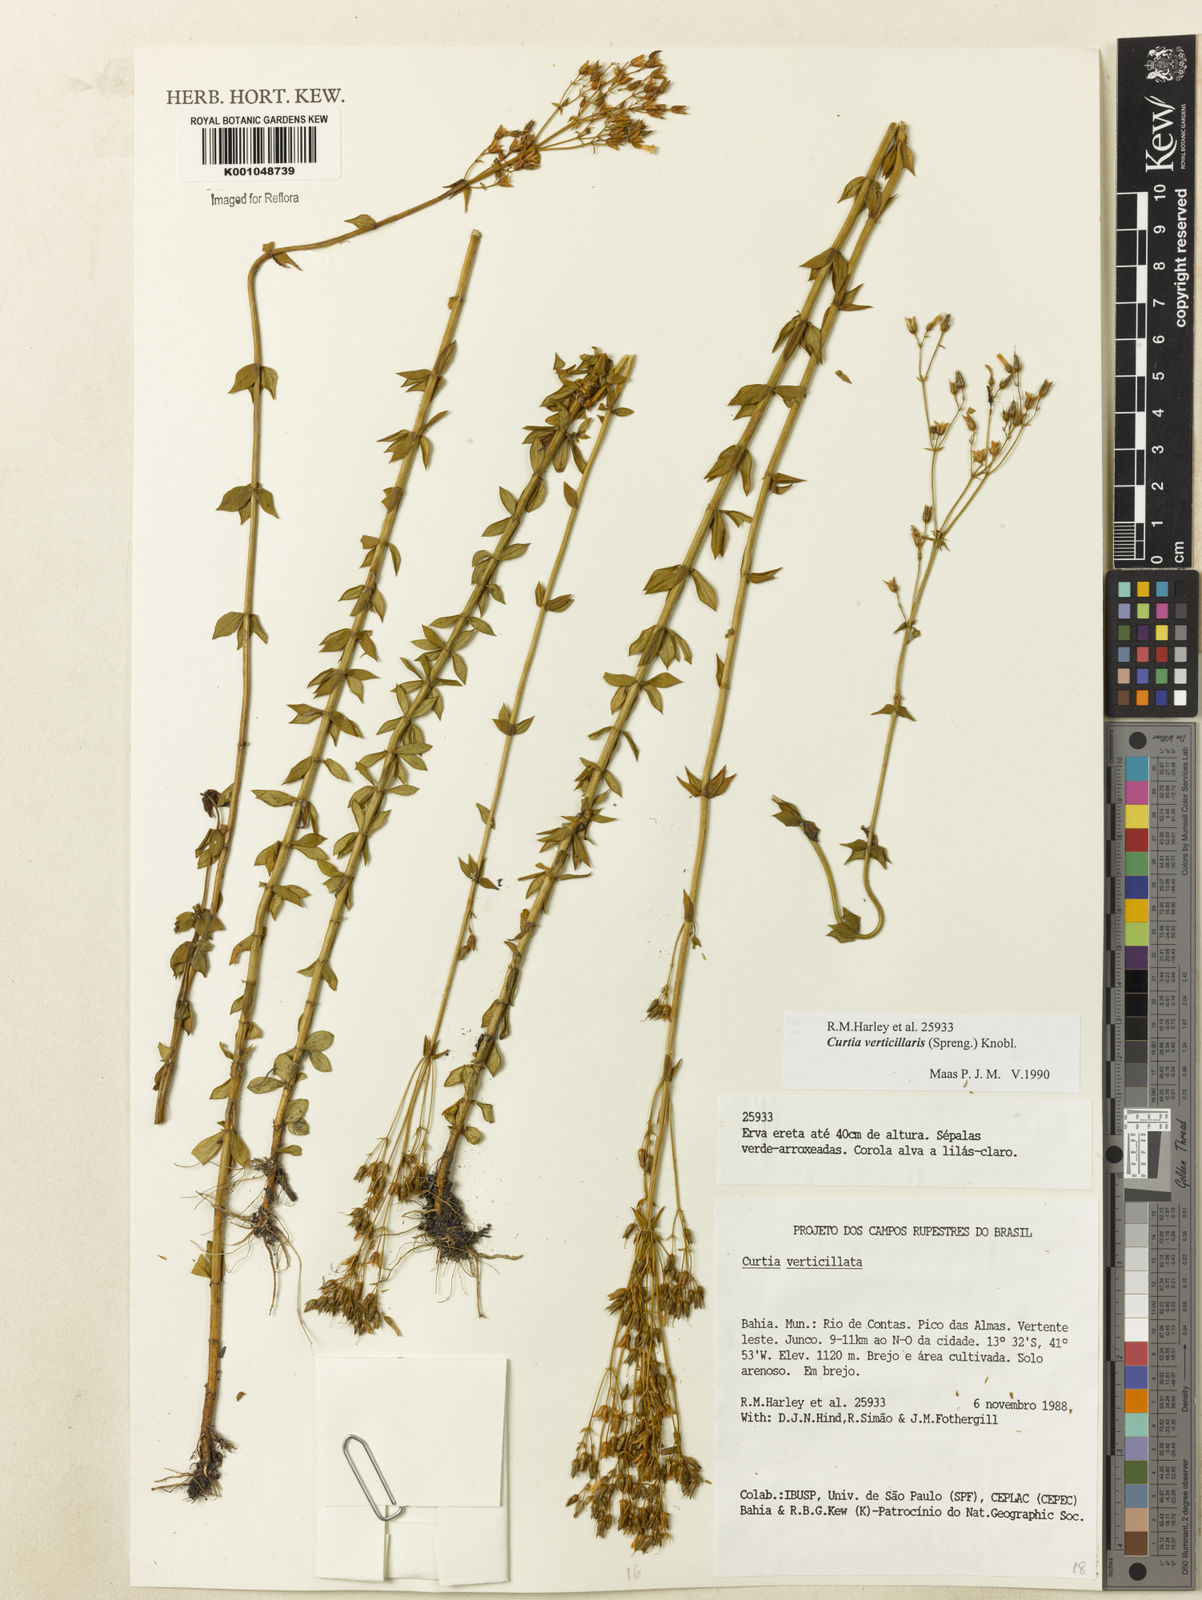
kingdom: Plantae
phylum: Tracheophyta
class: Magnoliopsida
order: Gentianales
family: Gentianaceae
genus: Curtia
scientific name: Curtia verticillaris
